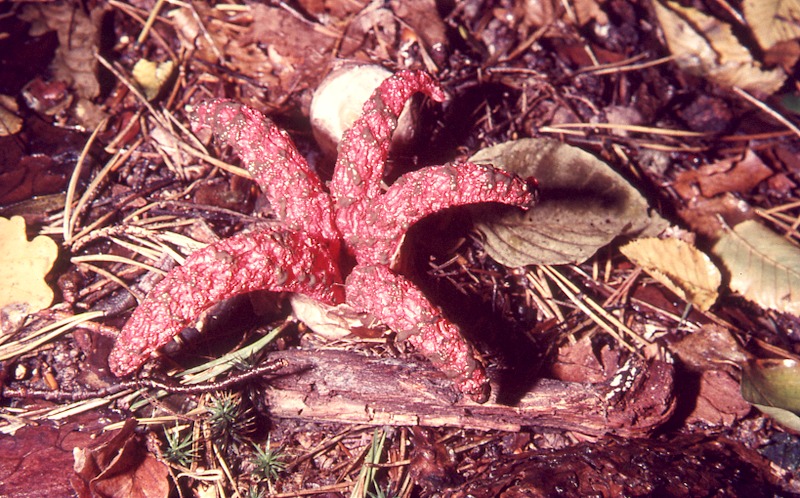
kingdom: Fungi
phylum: Basidiomycota
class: Agaricomycetes
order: Phallales
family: Phallaceae
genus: Clathrus
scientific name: Clathrus archeri
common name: Devil's fingers
